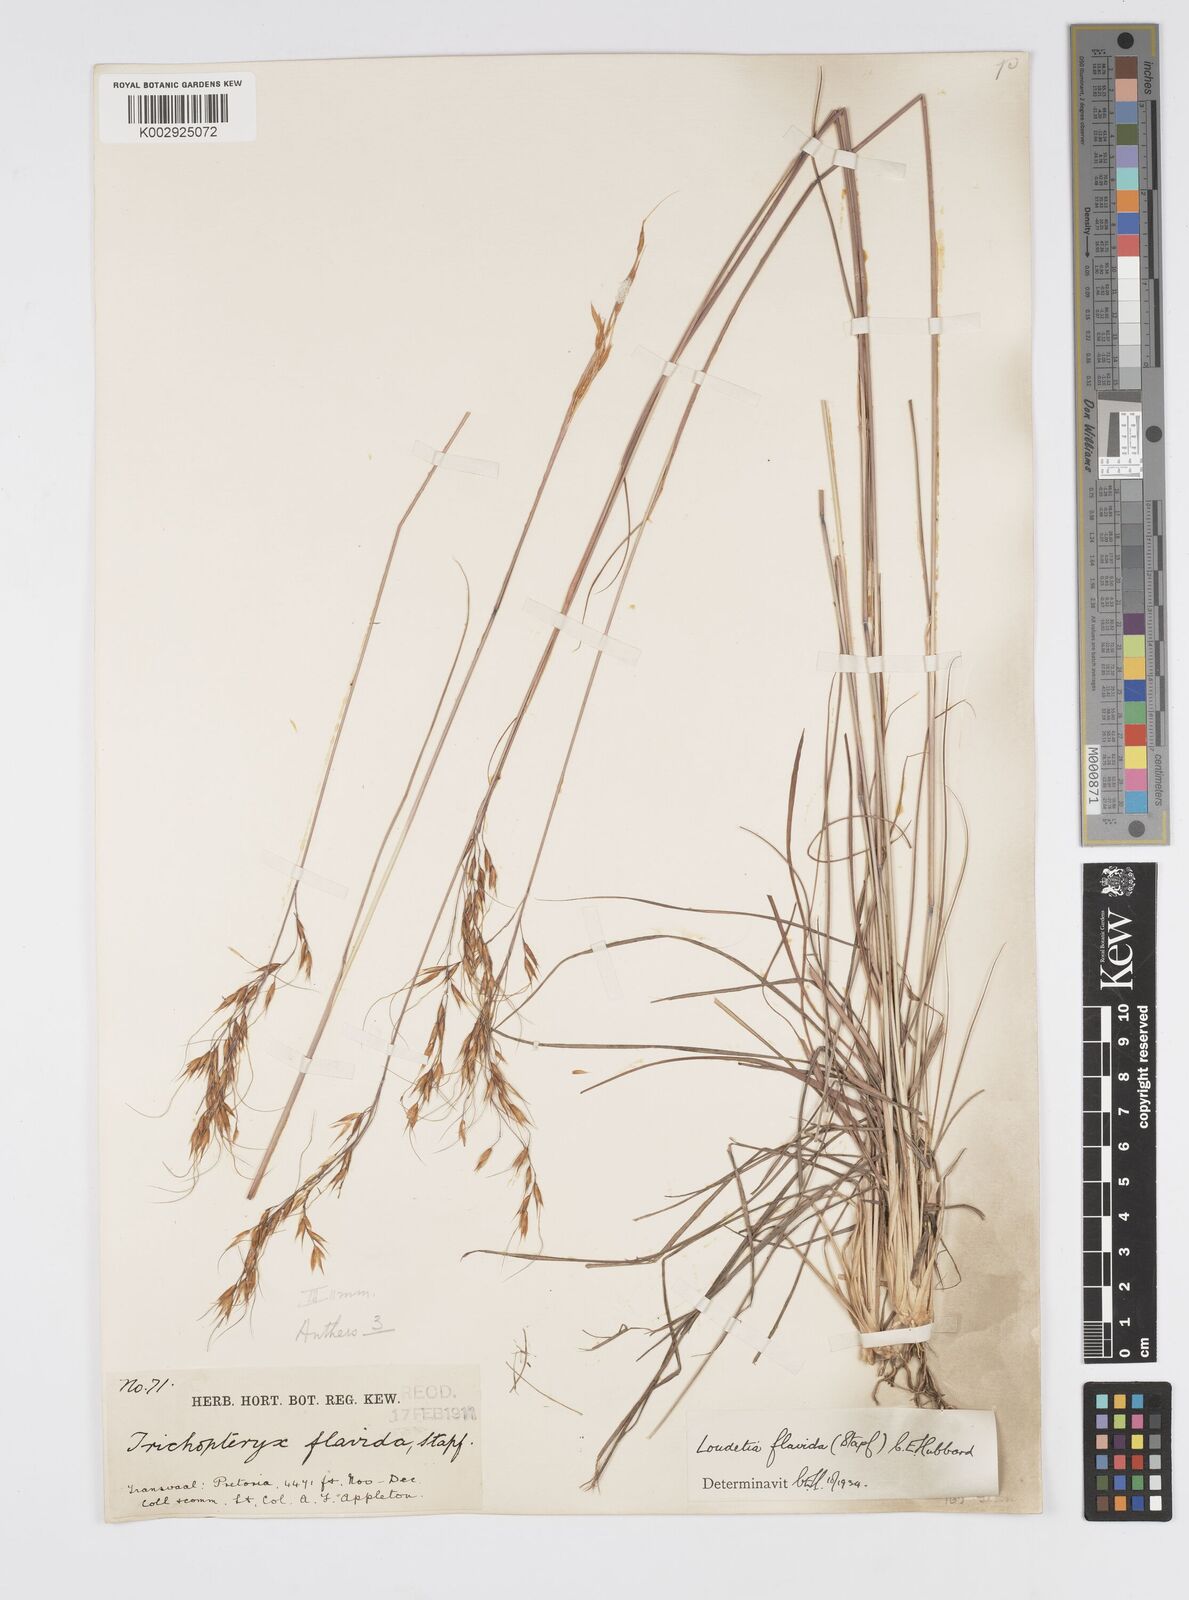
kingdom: Plantae
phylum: Tracheophyta
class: Liliopsida
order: Poales
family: Poaceae
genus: Loudetia
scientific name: Loudetia flavida
